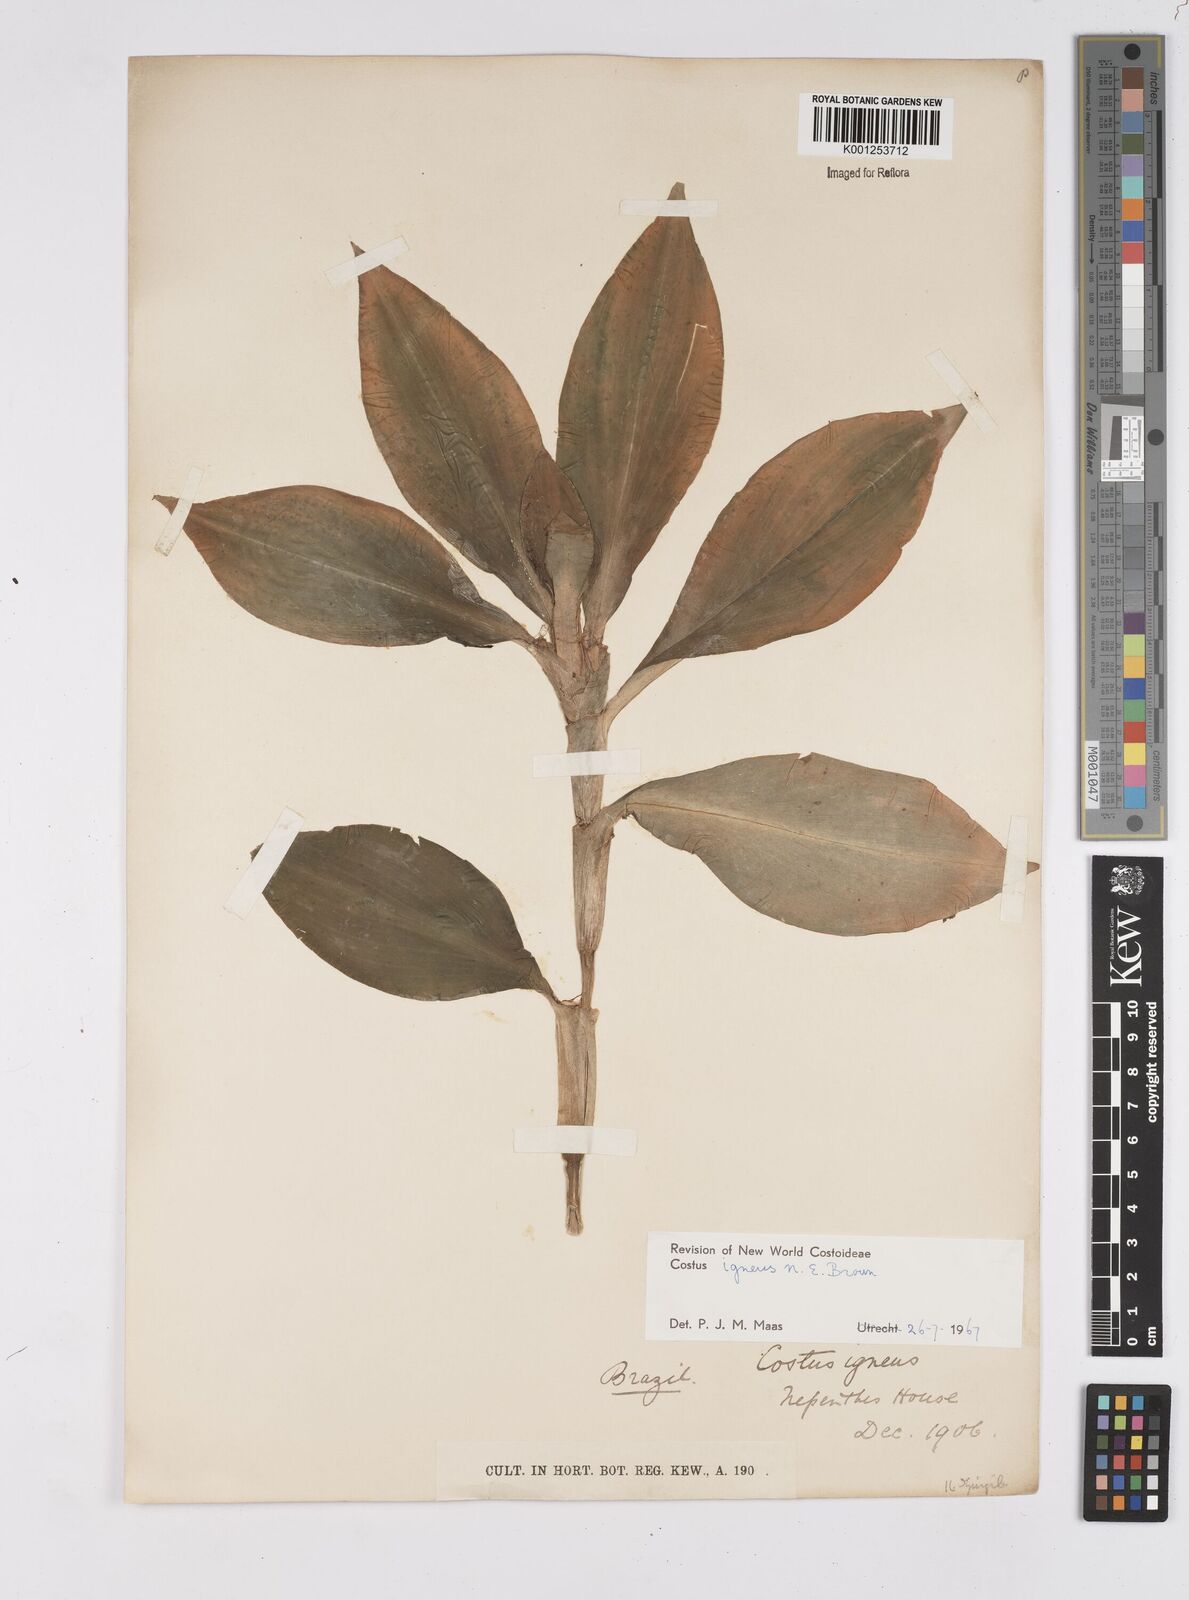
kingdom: Plantae
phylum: Tracheophyta
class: Liliopsida
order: Zingiberales
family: Costaceae
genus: Chamaecostus
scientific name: Chamaecostus cuspidatus
